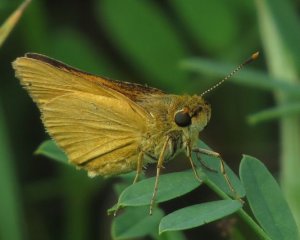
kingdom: Animalia
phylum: Arthropoda
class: Insecta
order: Lepidoptera
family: Hesperiidae
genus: Atrytone
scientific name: Atrytone delaware
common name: Delaware Skipper
